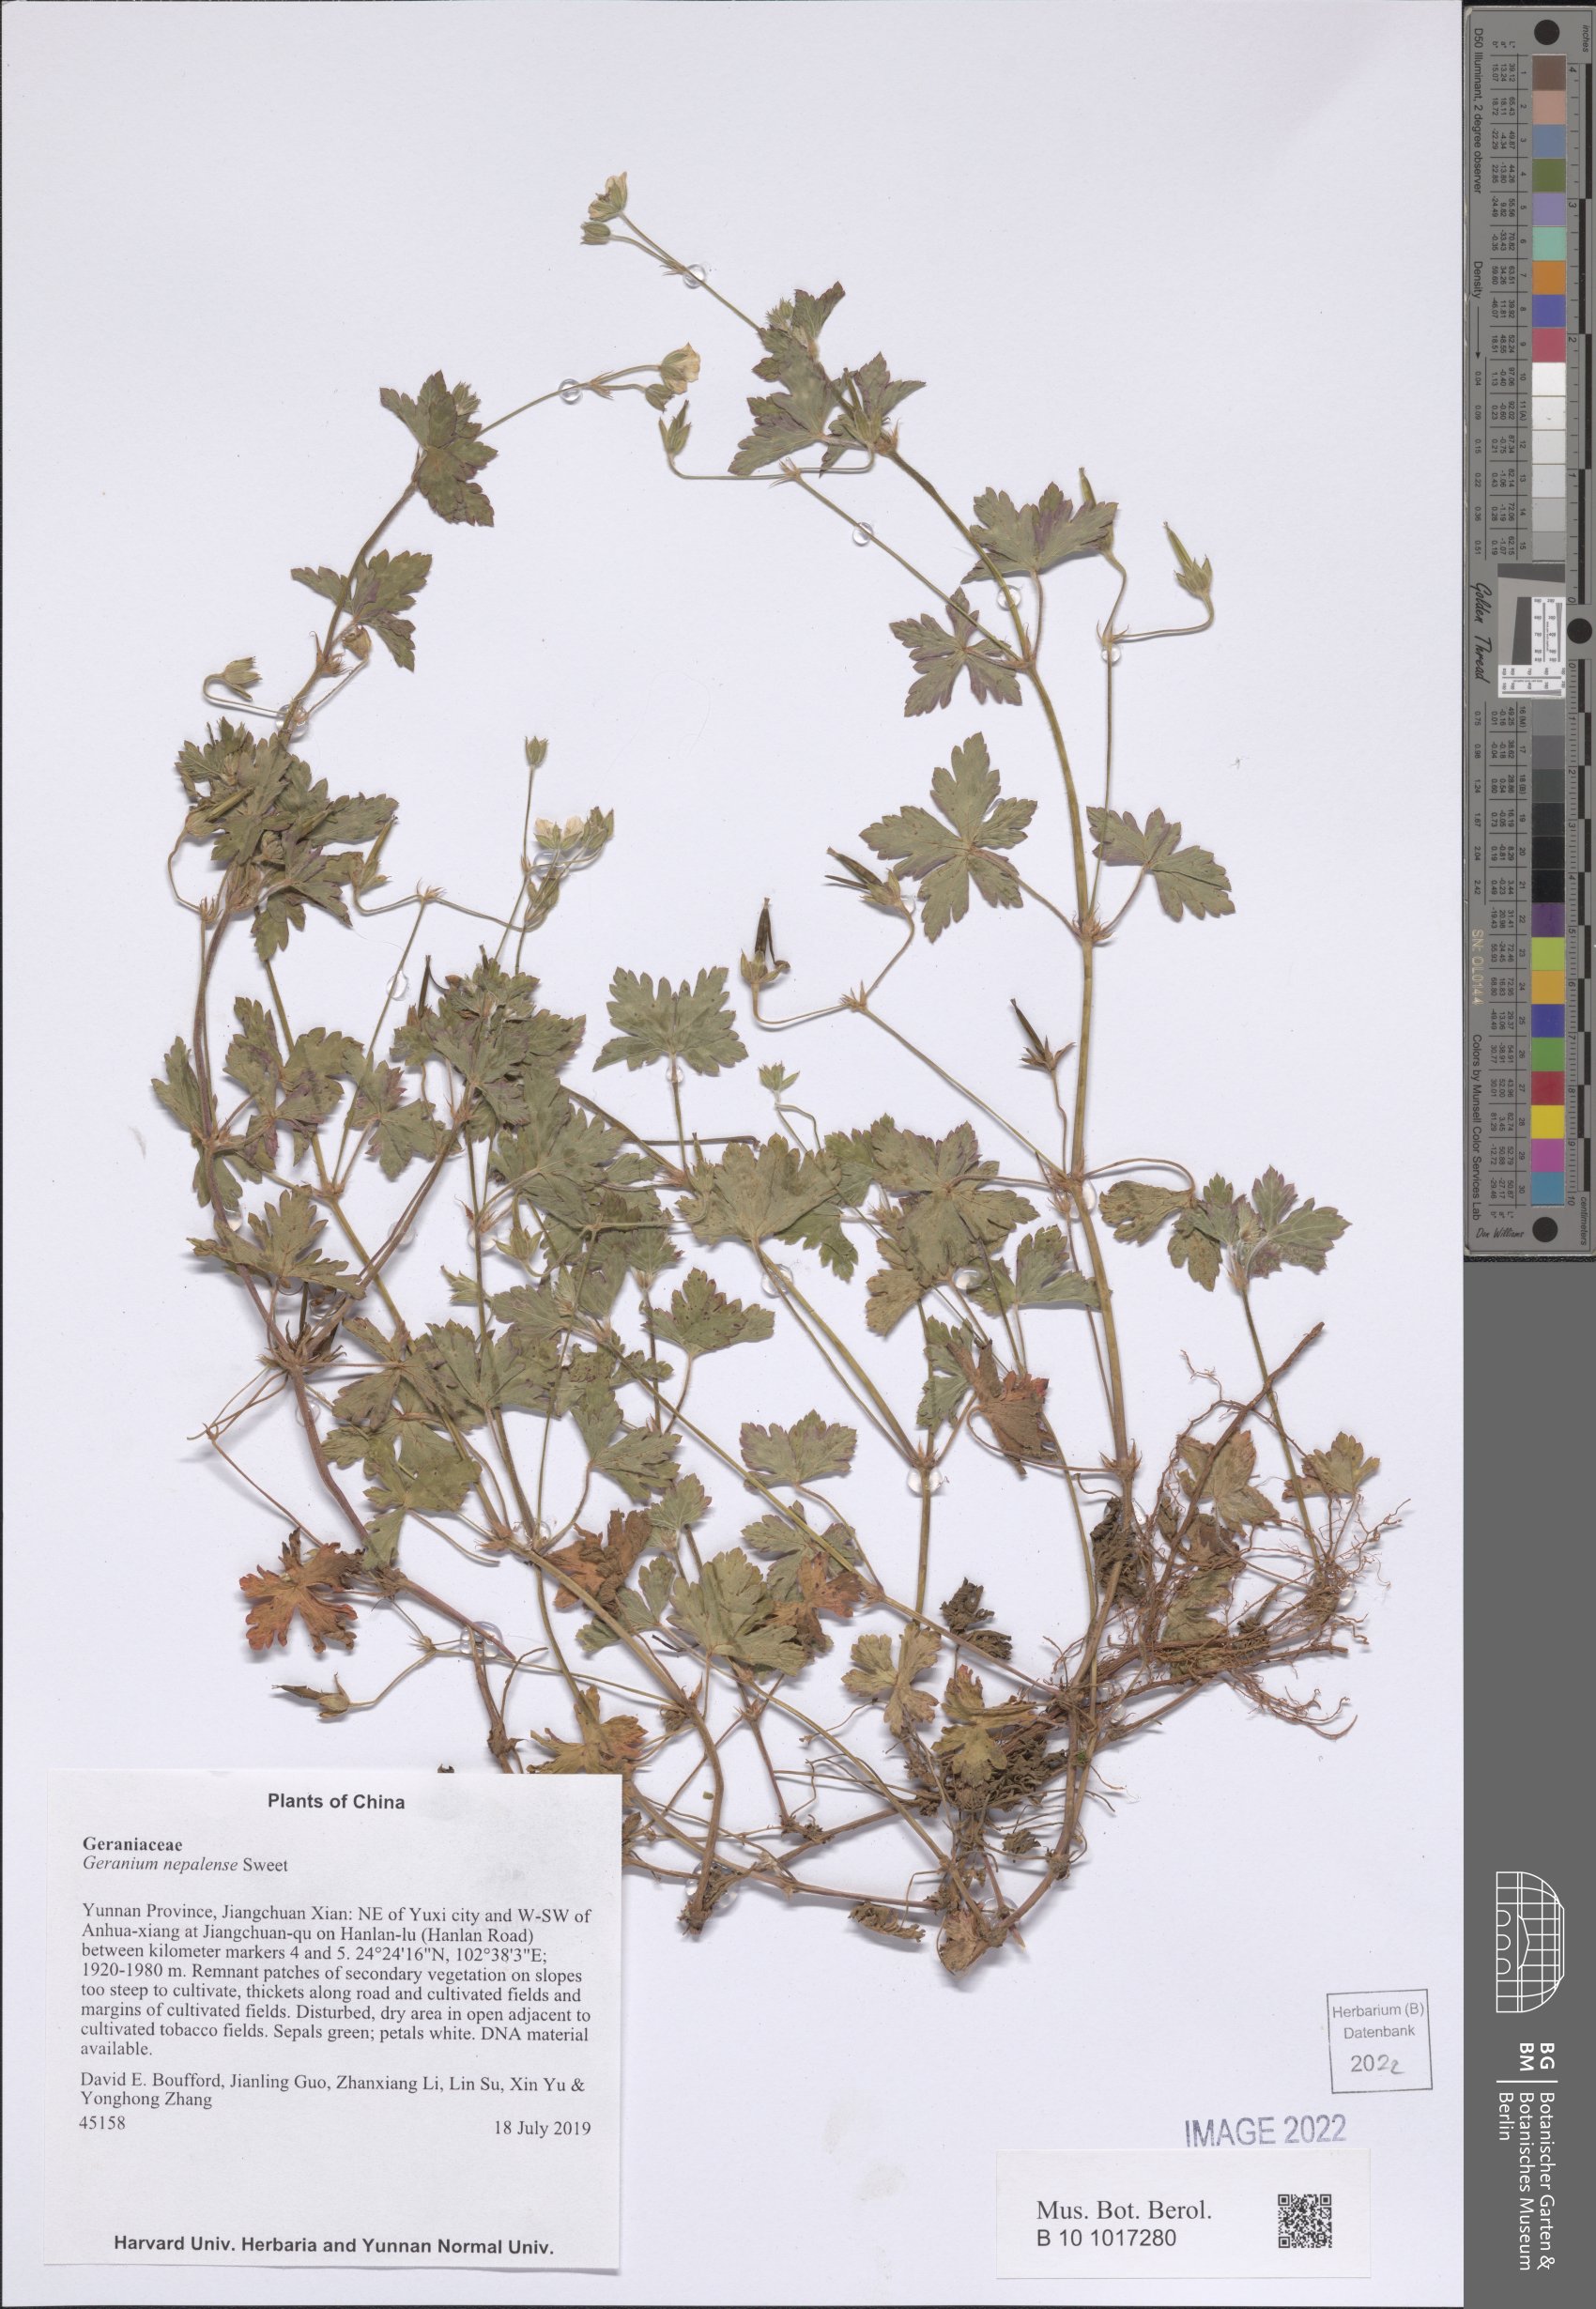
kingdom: Plantae
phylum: Tracheophyta
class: Magnoliopsida
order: Geraniales
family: Geraniaceae
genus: Geranium
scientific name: Geranium nepalense
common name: Nepalese crane's-bill
